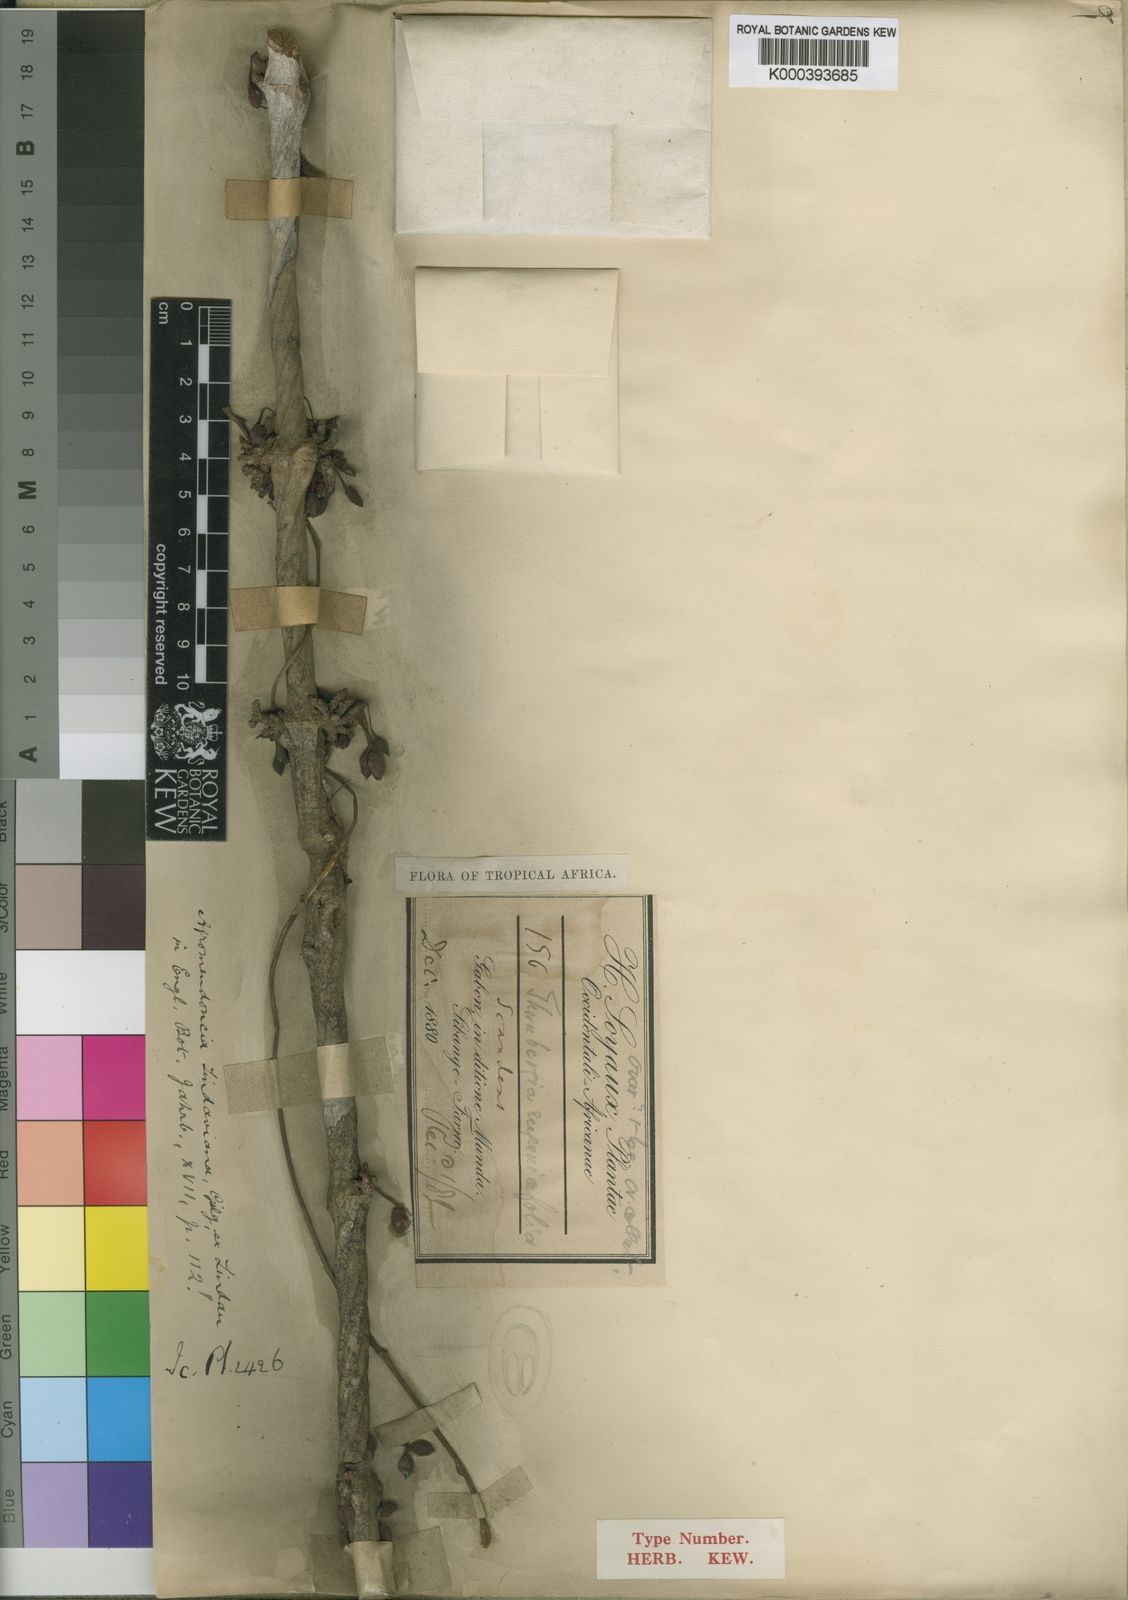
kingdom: Plantae
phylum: Tracheophyta
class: Magnoliopsida
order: Lamiales
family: Acanthaceae
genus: Mendoncia
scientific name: Mendoncia lindaviana
